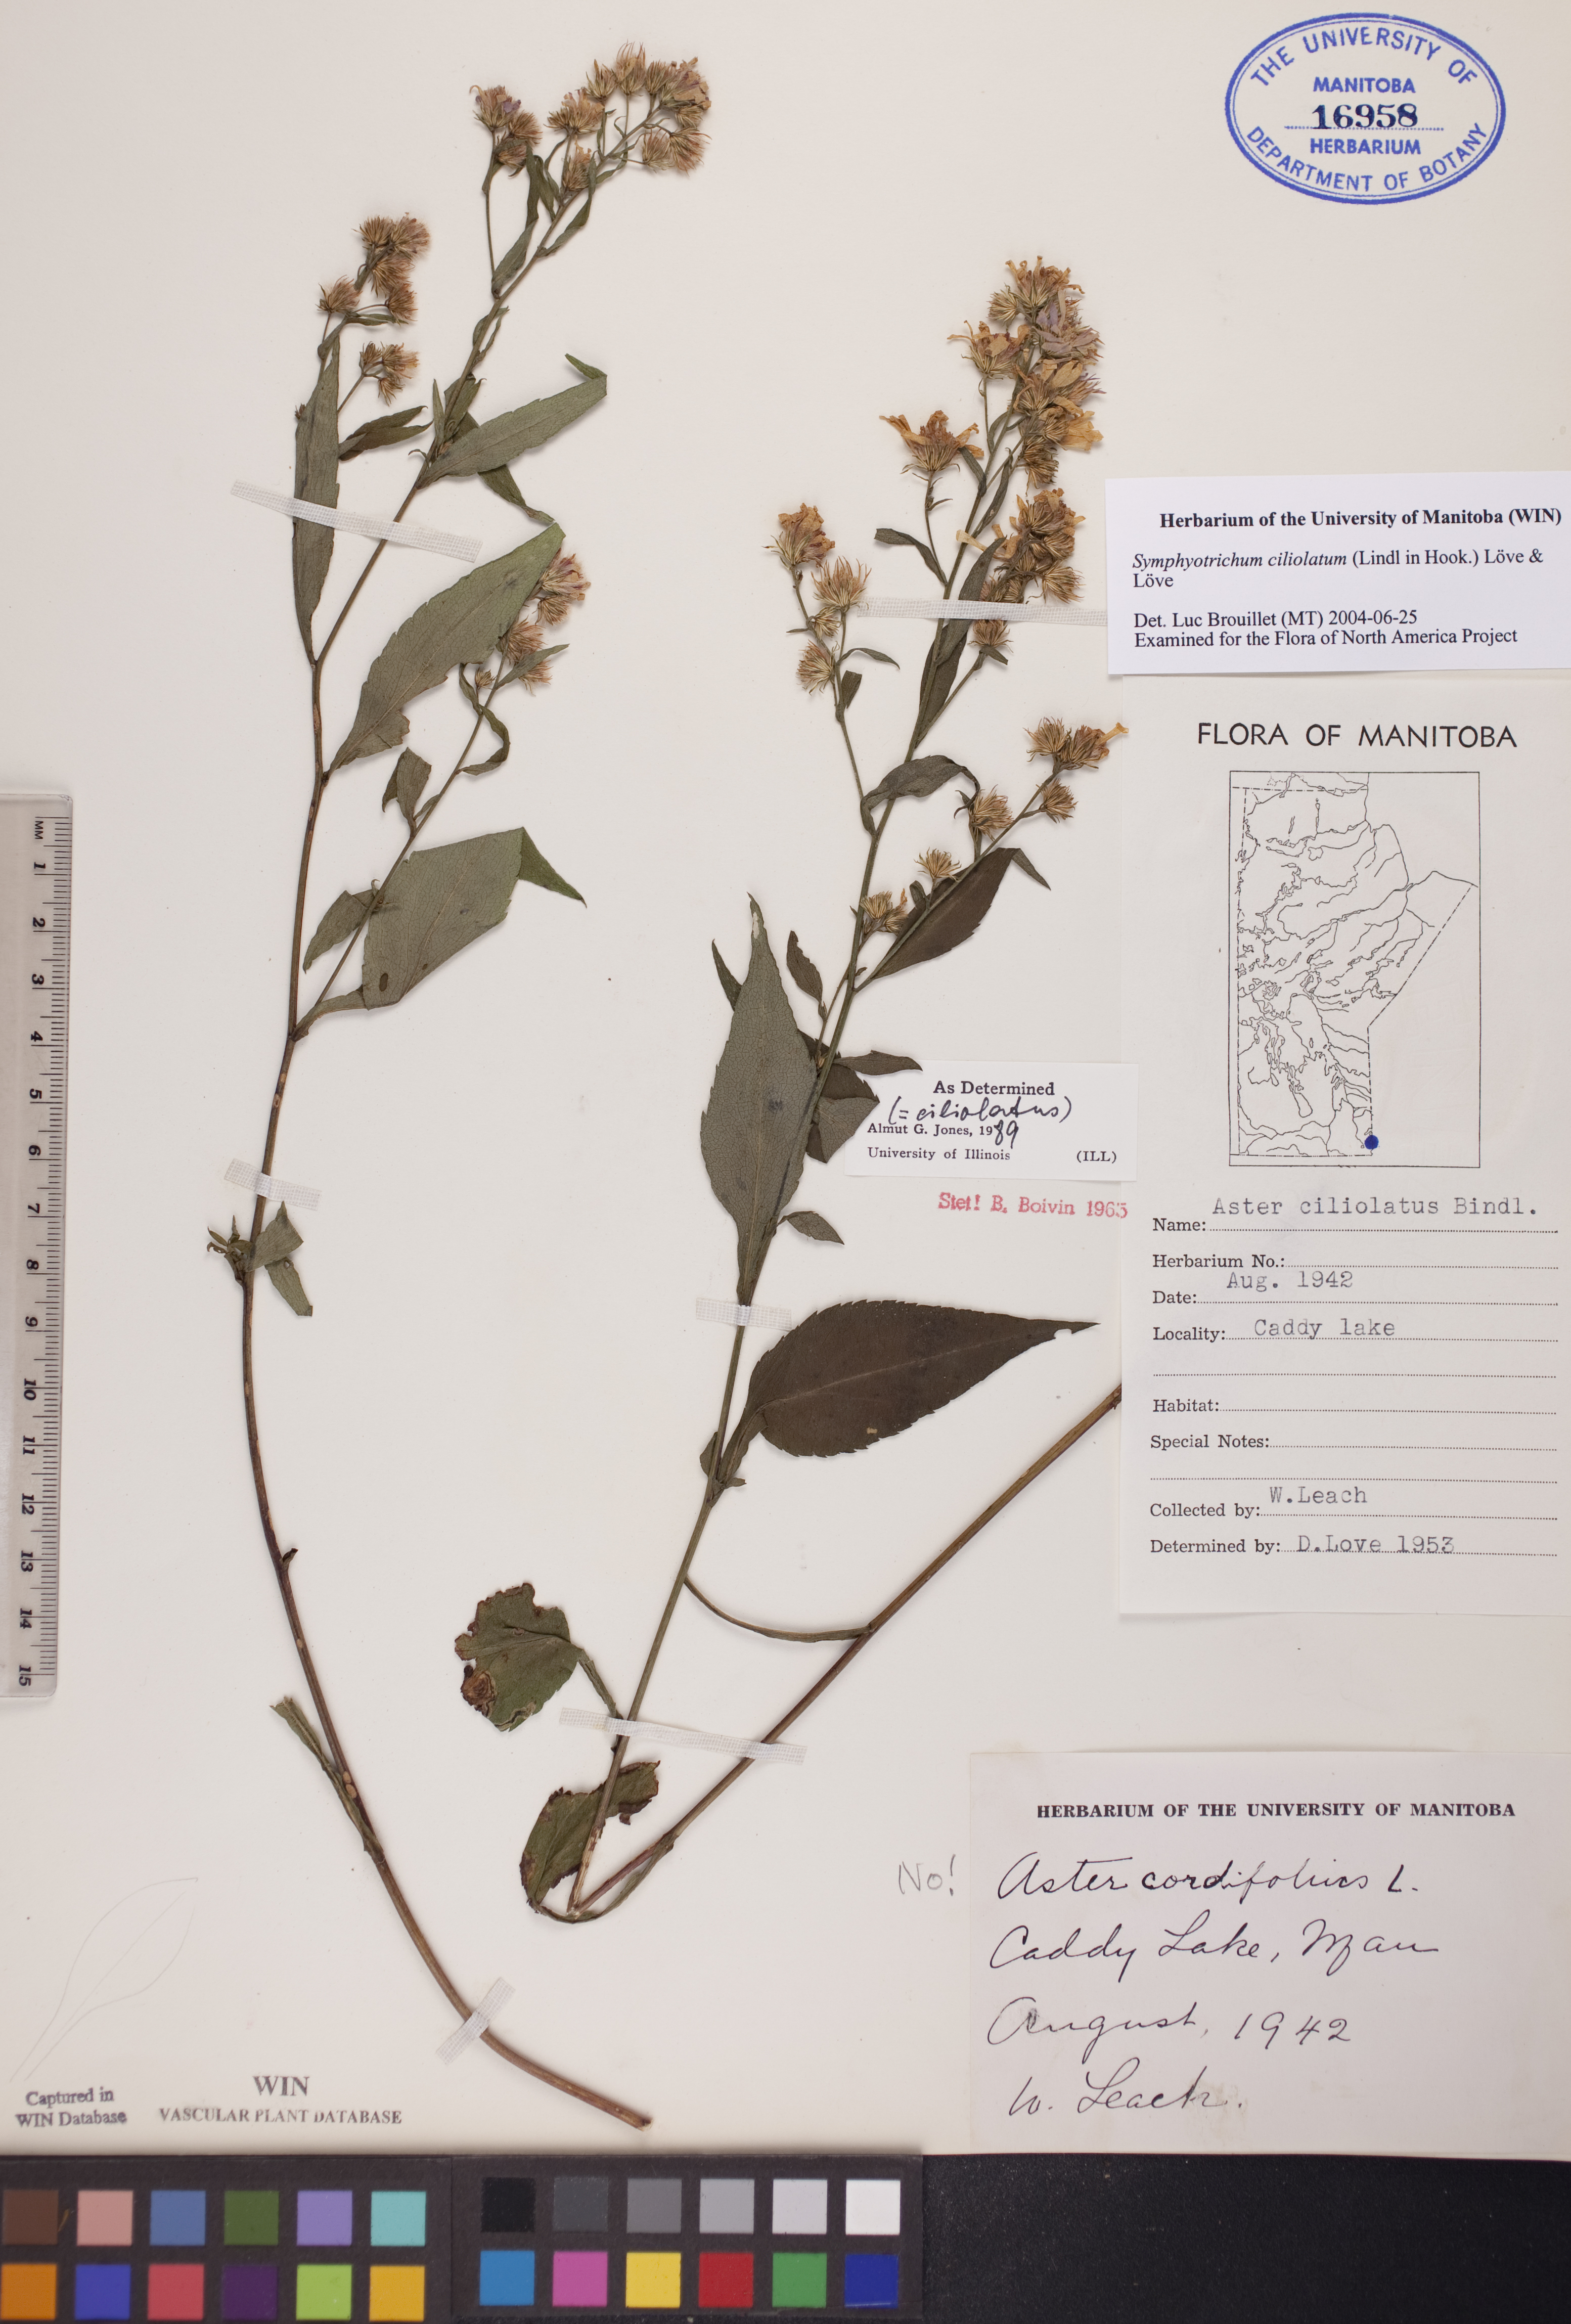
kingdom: Plantae
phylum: Tracheophyta
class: Magnoliopsida
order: Asterales
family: Asteraceae
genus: Symphyotrichum
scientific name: Symphyotrichum ciliolatum
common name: Fringed blue aster
